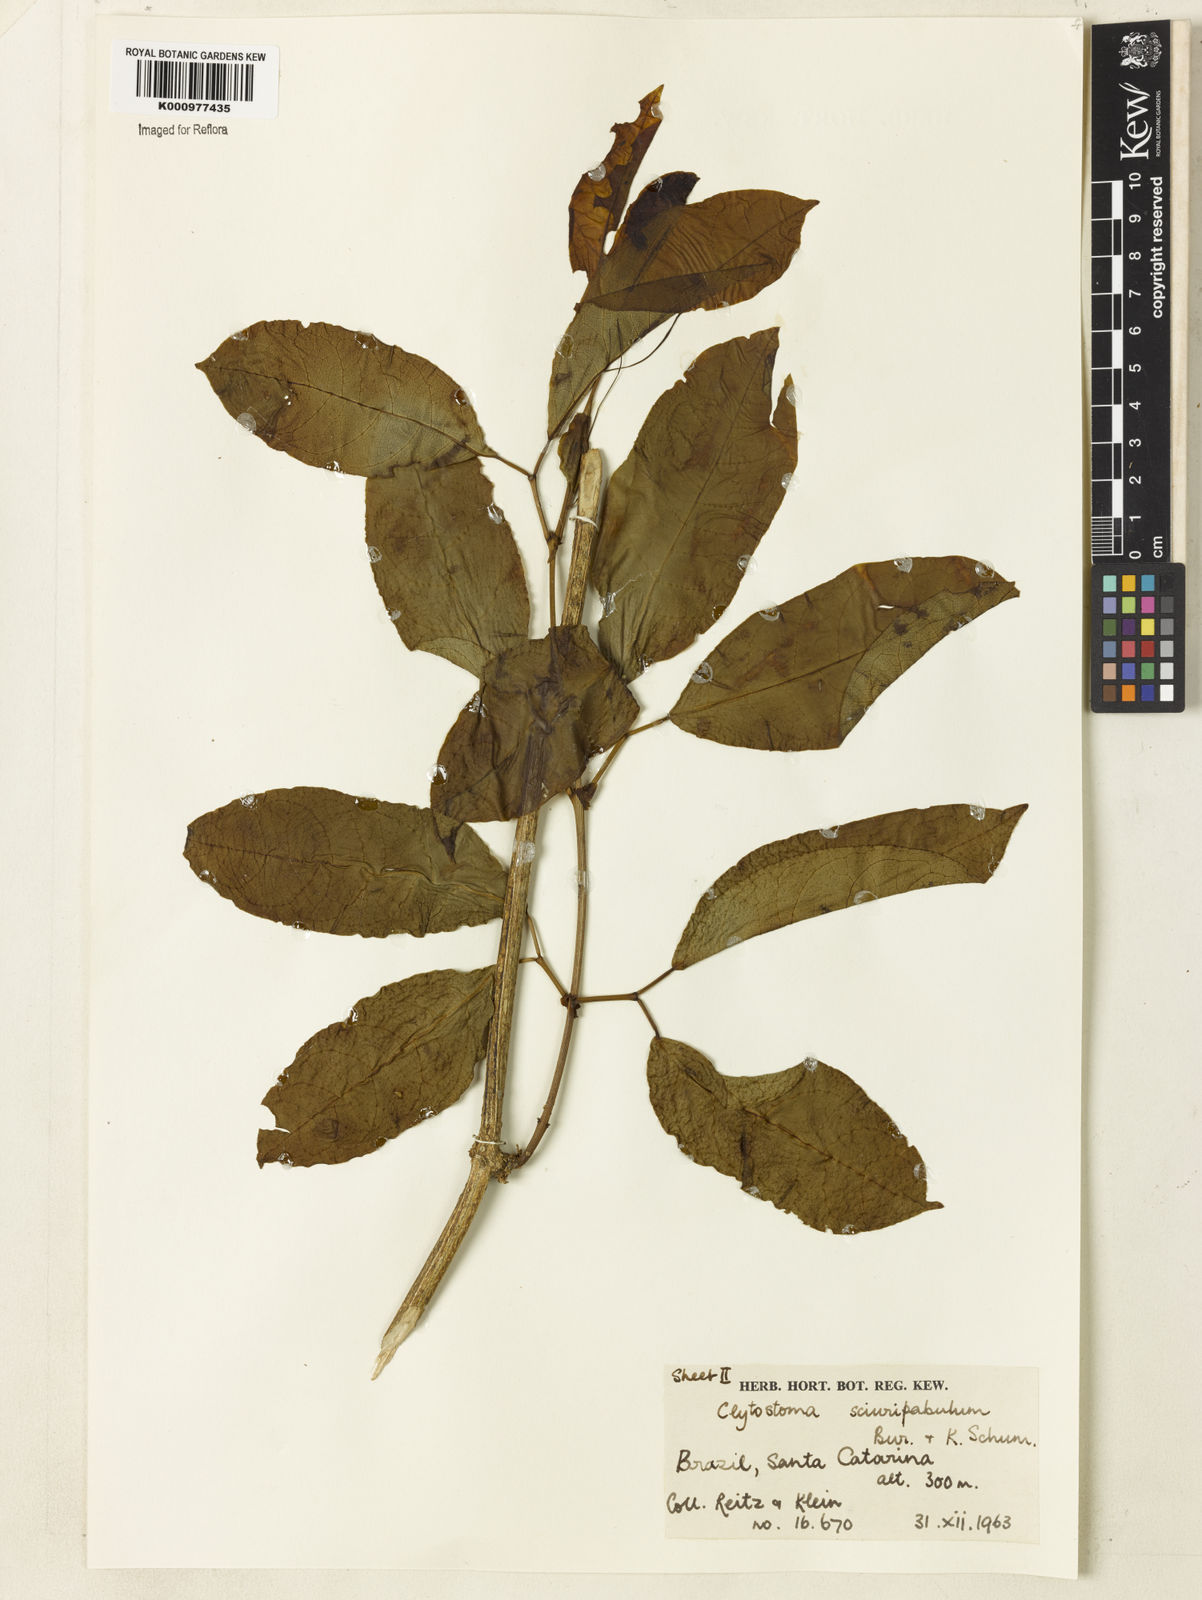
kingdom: Plantae
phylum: Tracheophyta
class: Magnoliopsida
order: Lamiales
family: Bignoniaceae
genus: Bignonia
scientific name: Bignonia
